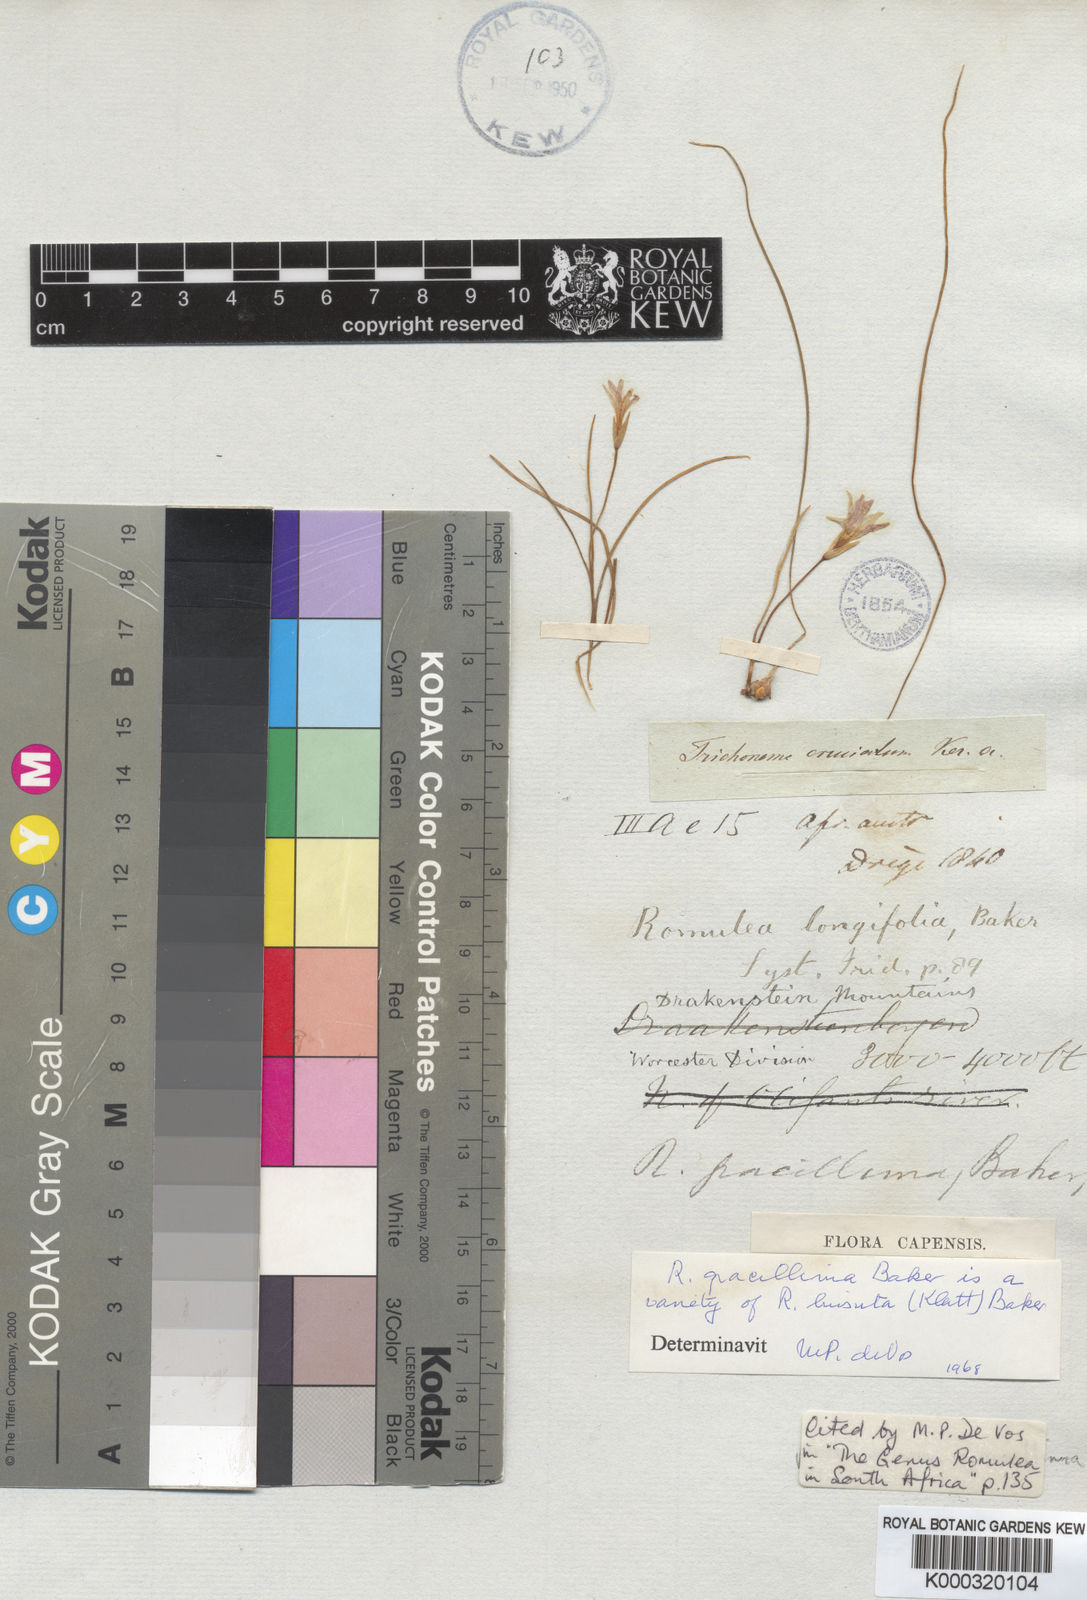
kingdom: Plantae
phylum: Tracheophyta
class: Liliopsida
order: Asparagales
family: Iridaceae
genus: Romulea
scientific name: Romulea gracillima
